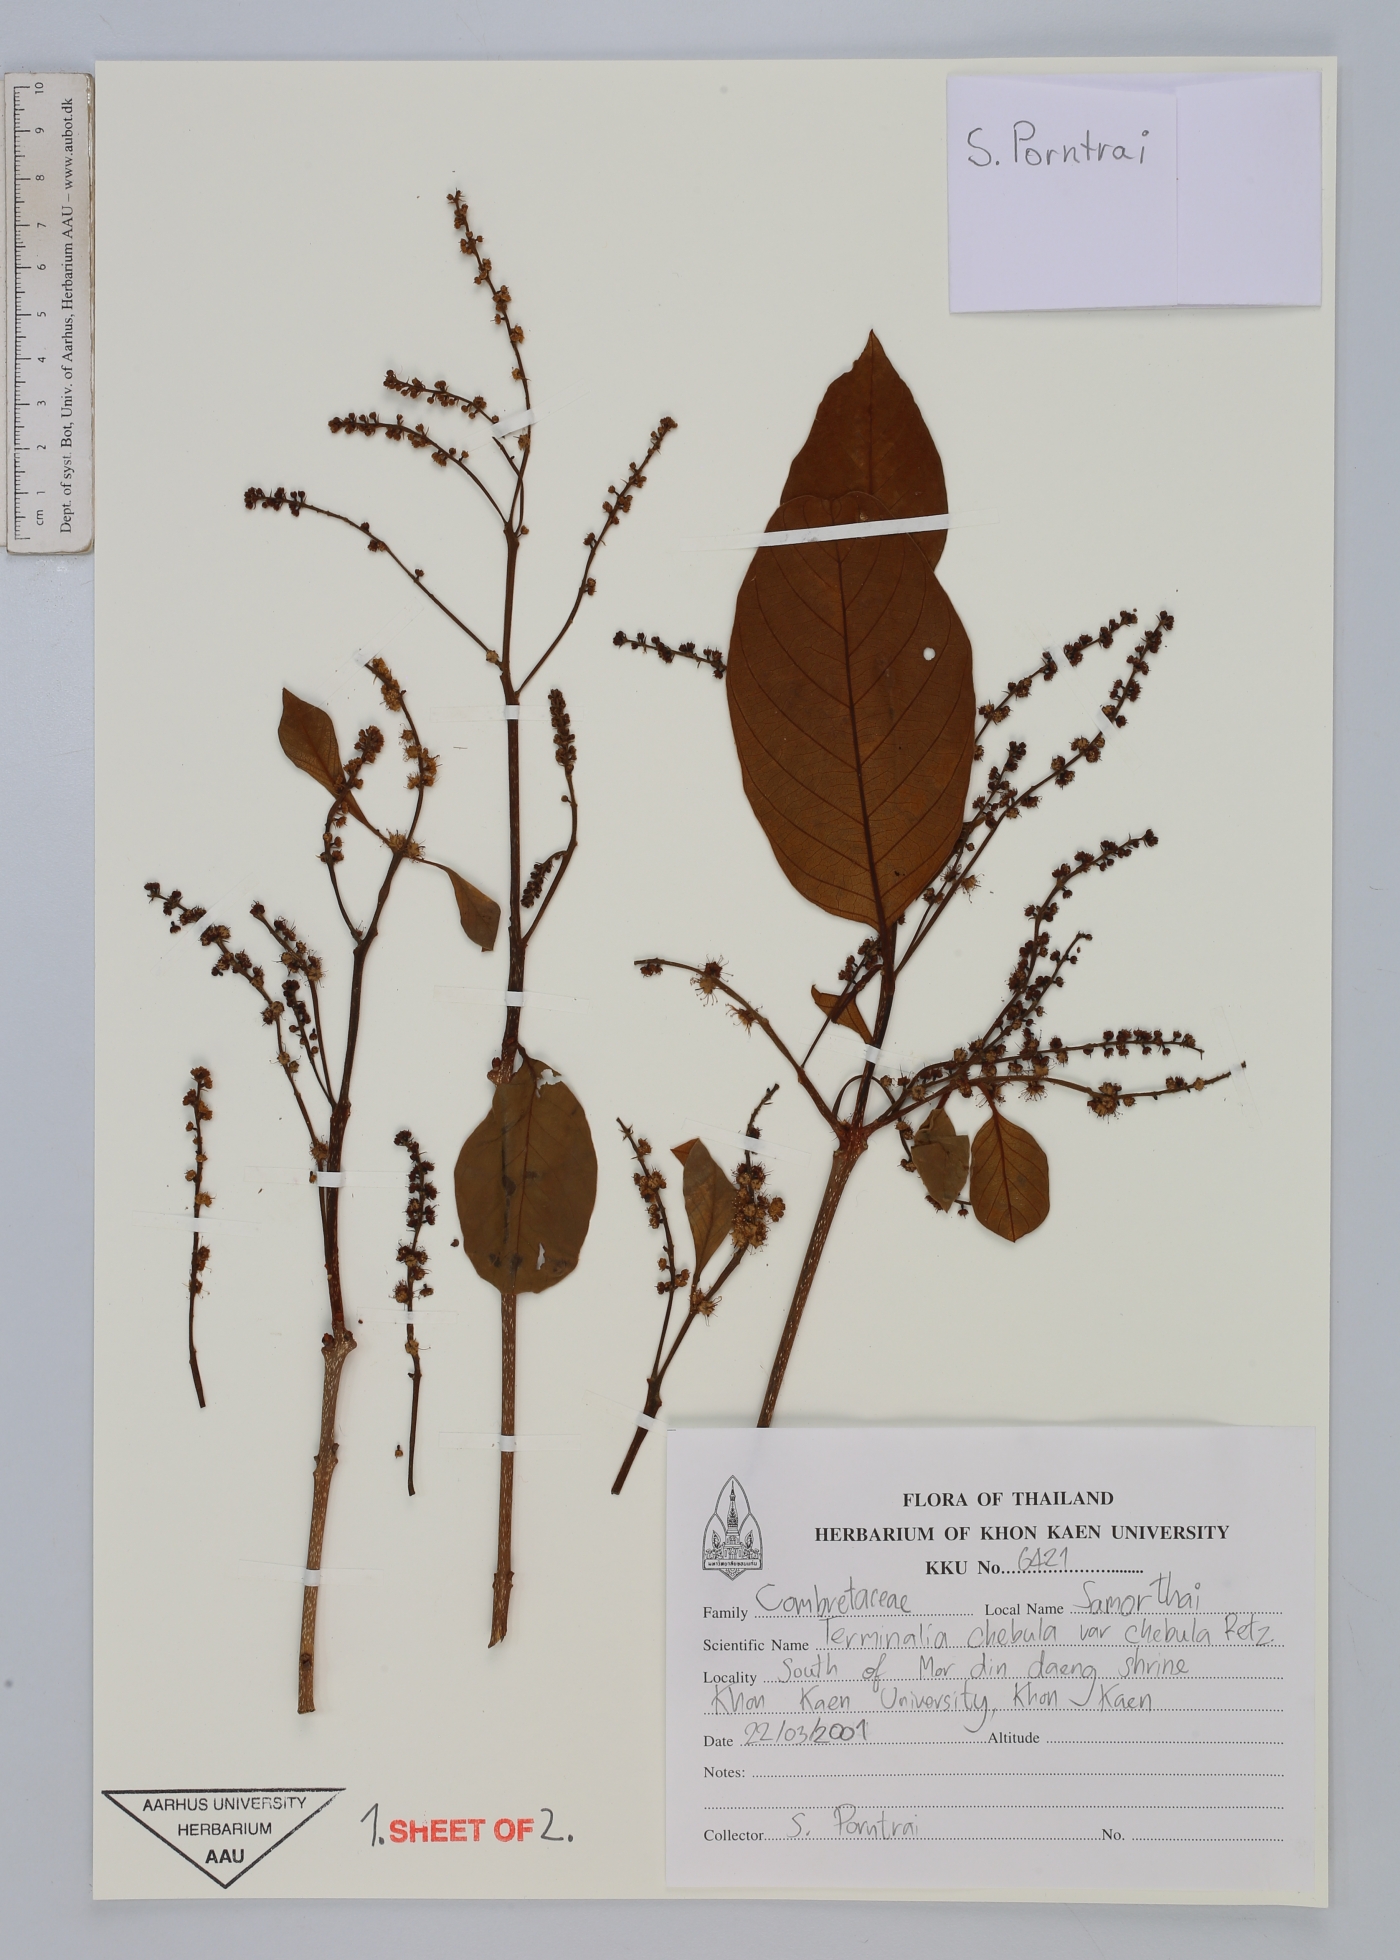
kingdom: Plantae
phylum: Tracheophyta
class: Magnoliopsida
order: Myrtales
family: Combretaceae
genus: Terminalia
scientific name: Terminalia chebula
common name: Myrobalan
